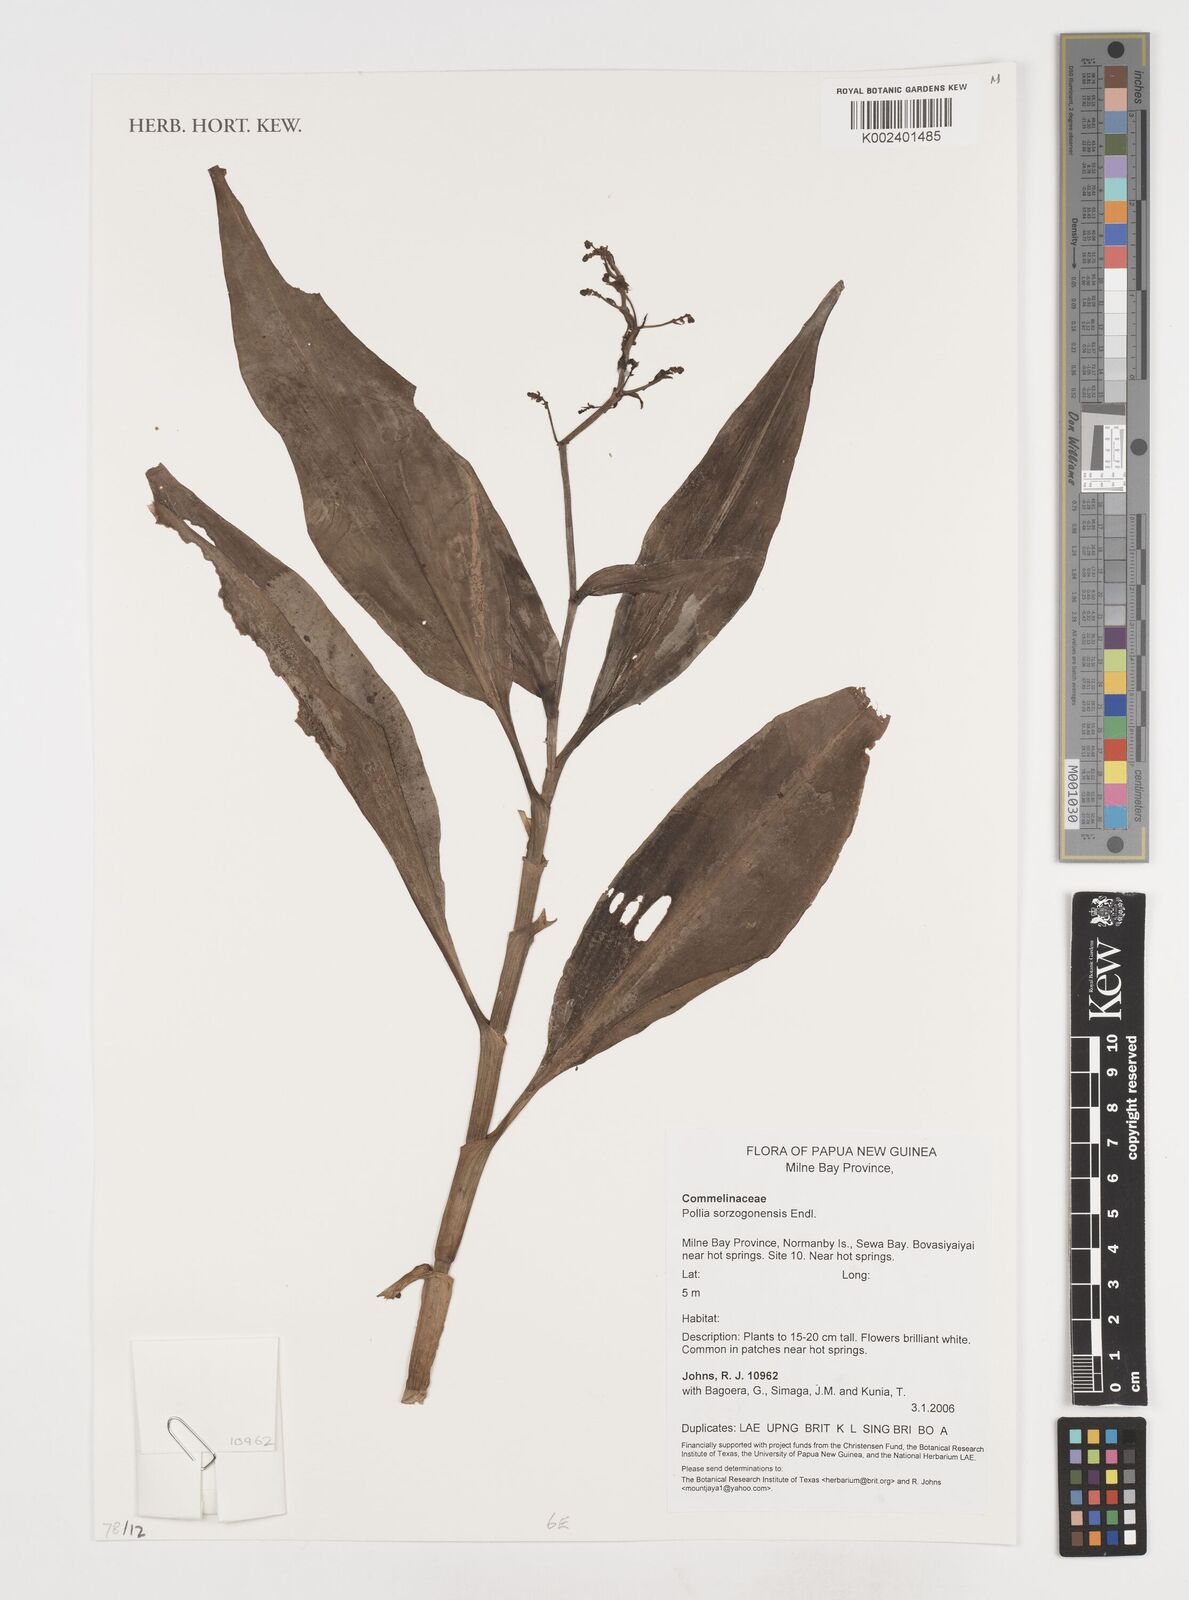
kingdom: Plantae
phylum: Tracheophyta
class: Liliopsida
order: Commelinales
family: Commelinaceae
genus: Pollia
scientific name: Pollia secundiflora
